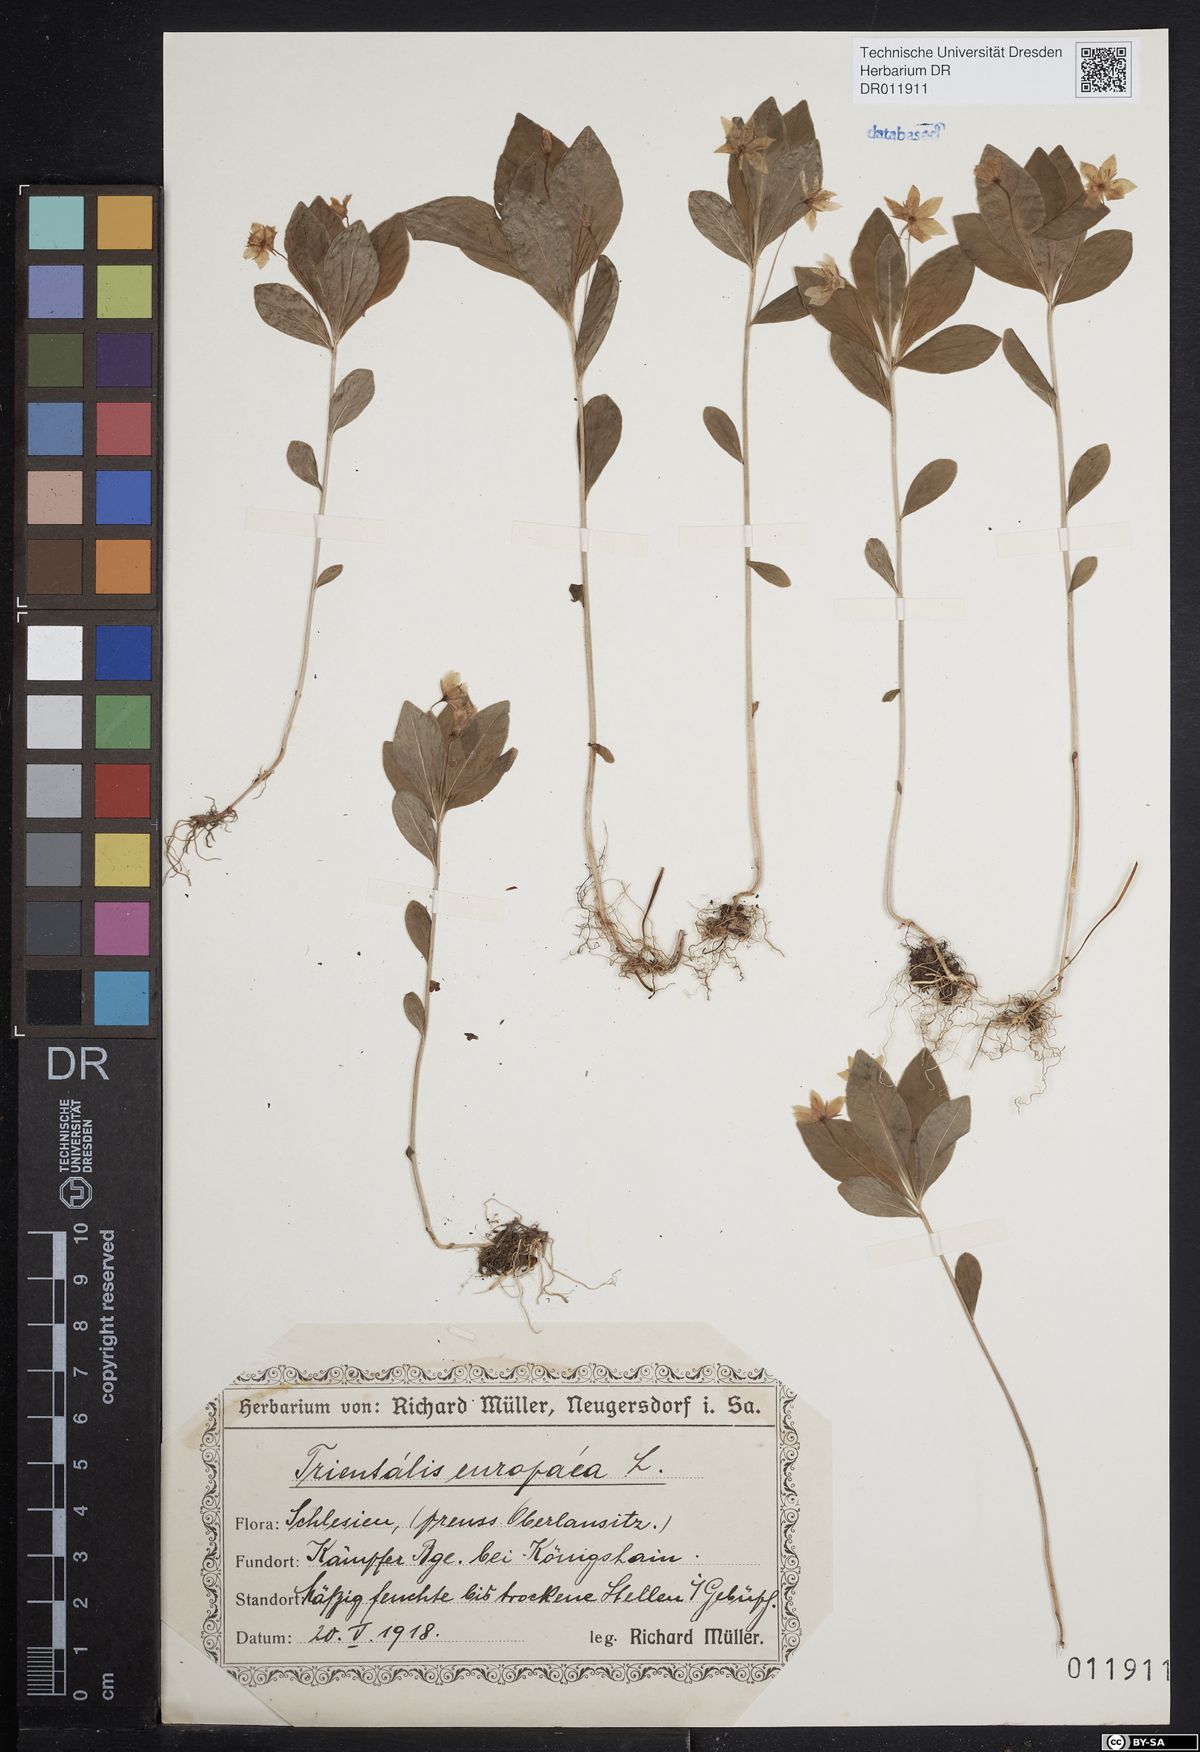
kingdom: Plantae
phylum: Tracheophyta
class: Magnoliopsida
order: Ericales
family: Primulaceae
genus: Lysimachia
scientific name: Lysimachia europaea
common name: Arctic starflower
